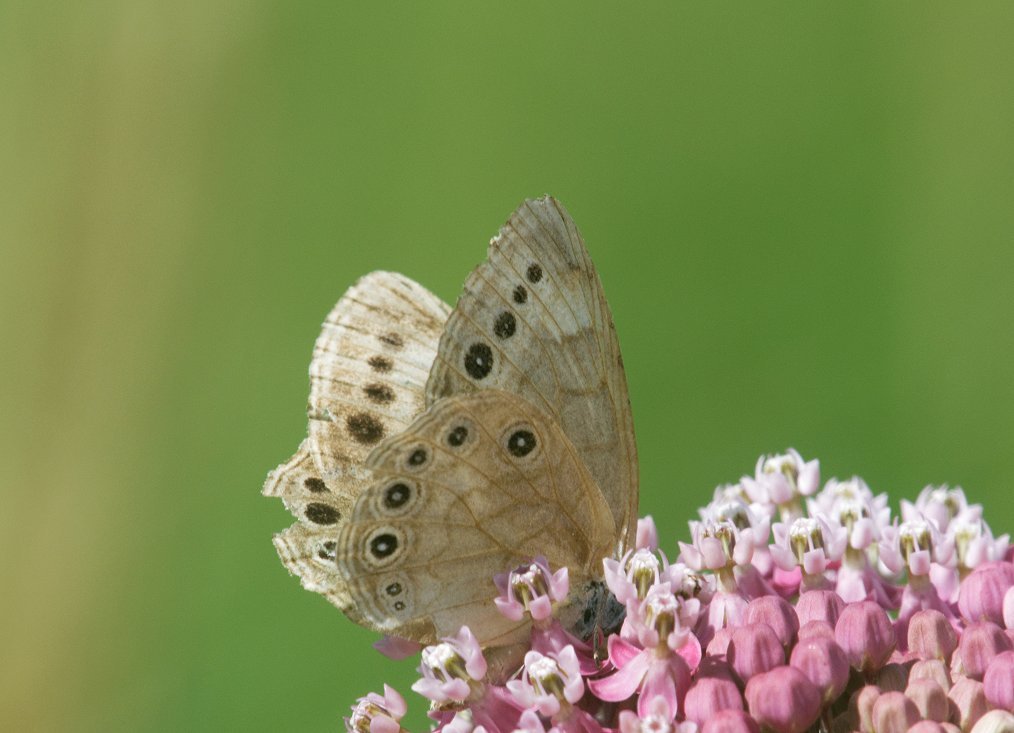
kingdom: Animalia
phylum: Arthropoda
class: Insecta
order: Lepidoptera
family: Nymphalidae
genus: Lethe
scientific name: Lethe eurydice
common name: Eyed Brown
